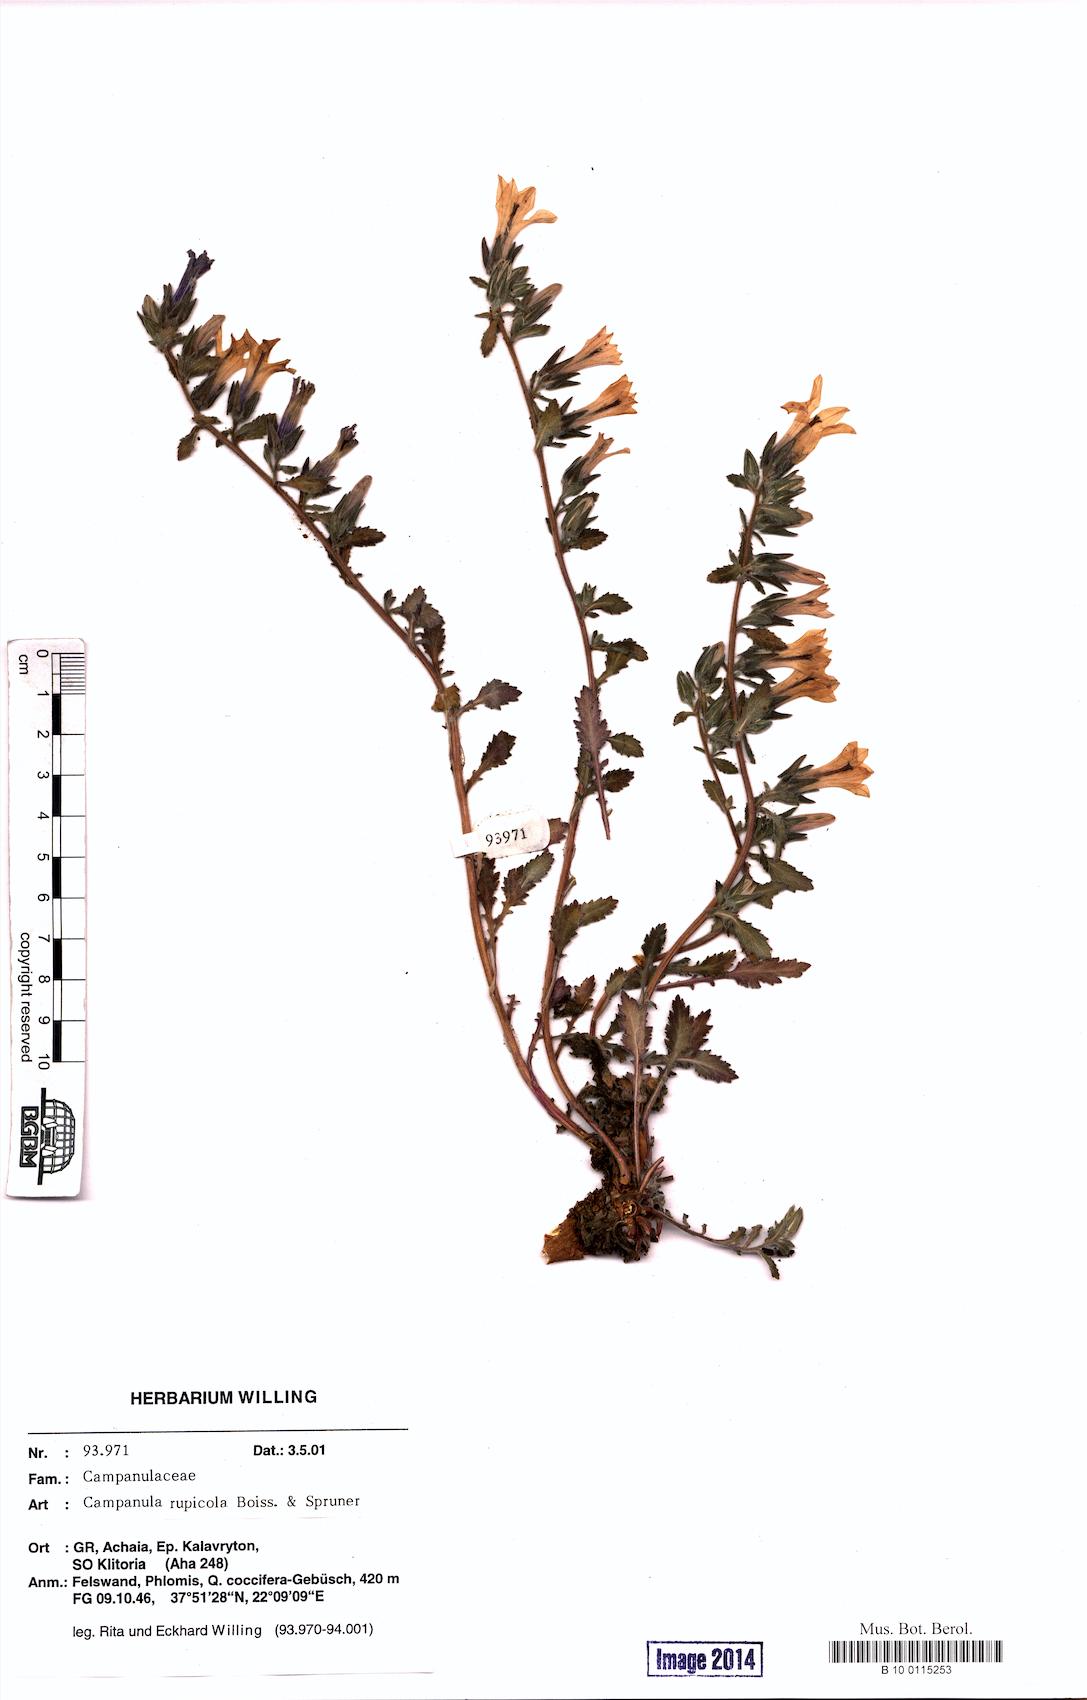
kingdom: Plantae
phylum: Tracheophyta
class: Magnoliopsida
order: Asterales
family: Campanulaceae
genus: Campanula
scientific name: Campanula rupicola
